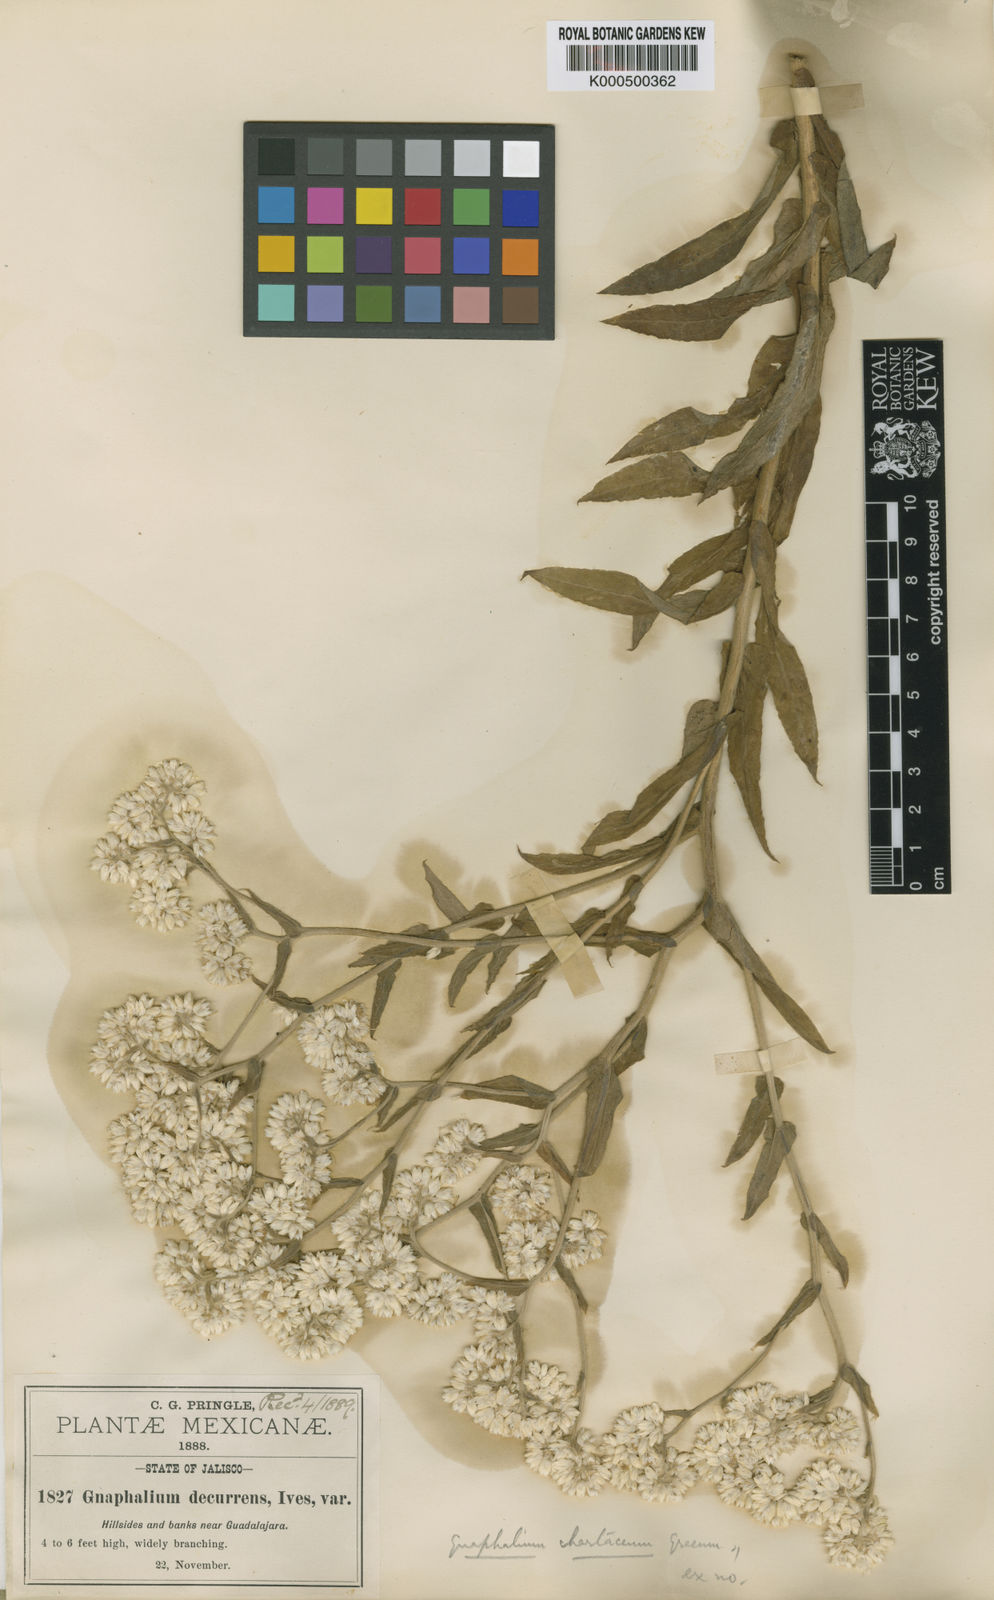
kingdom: Plantae
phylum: Tracheophyta
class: Magnoliopsida
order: Asterales
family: Asteraceae
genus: Pseudognaphalium
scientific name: Pseudognaphalium chartaceum
